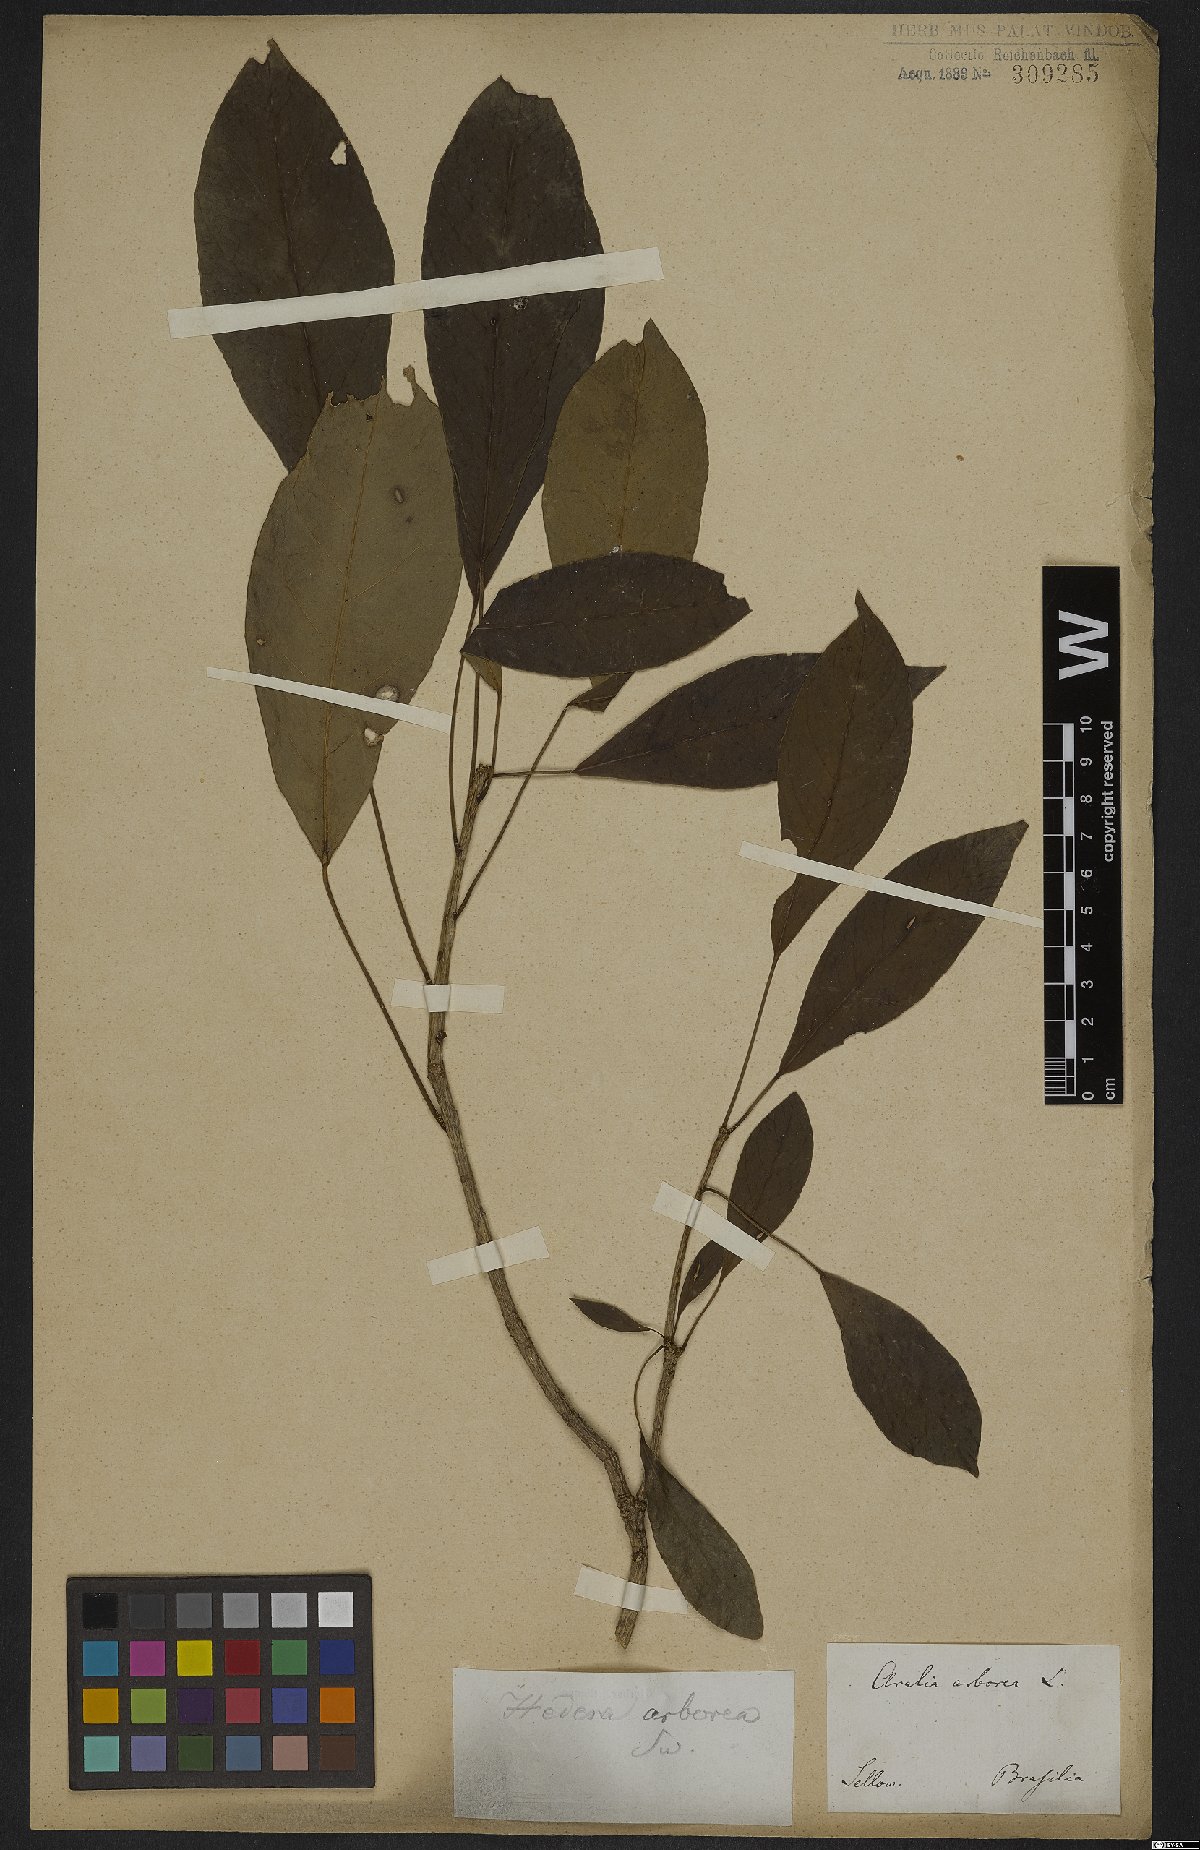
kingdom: Plantae
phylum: Tracheophyta
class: Magnoliopsida
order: Apiales
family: Araliaceae
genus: Dendropanax
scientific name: Dendropanax cuneatus
